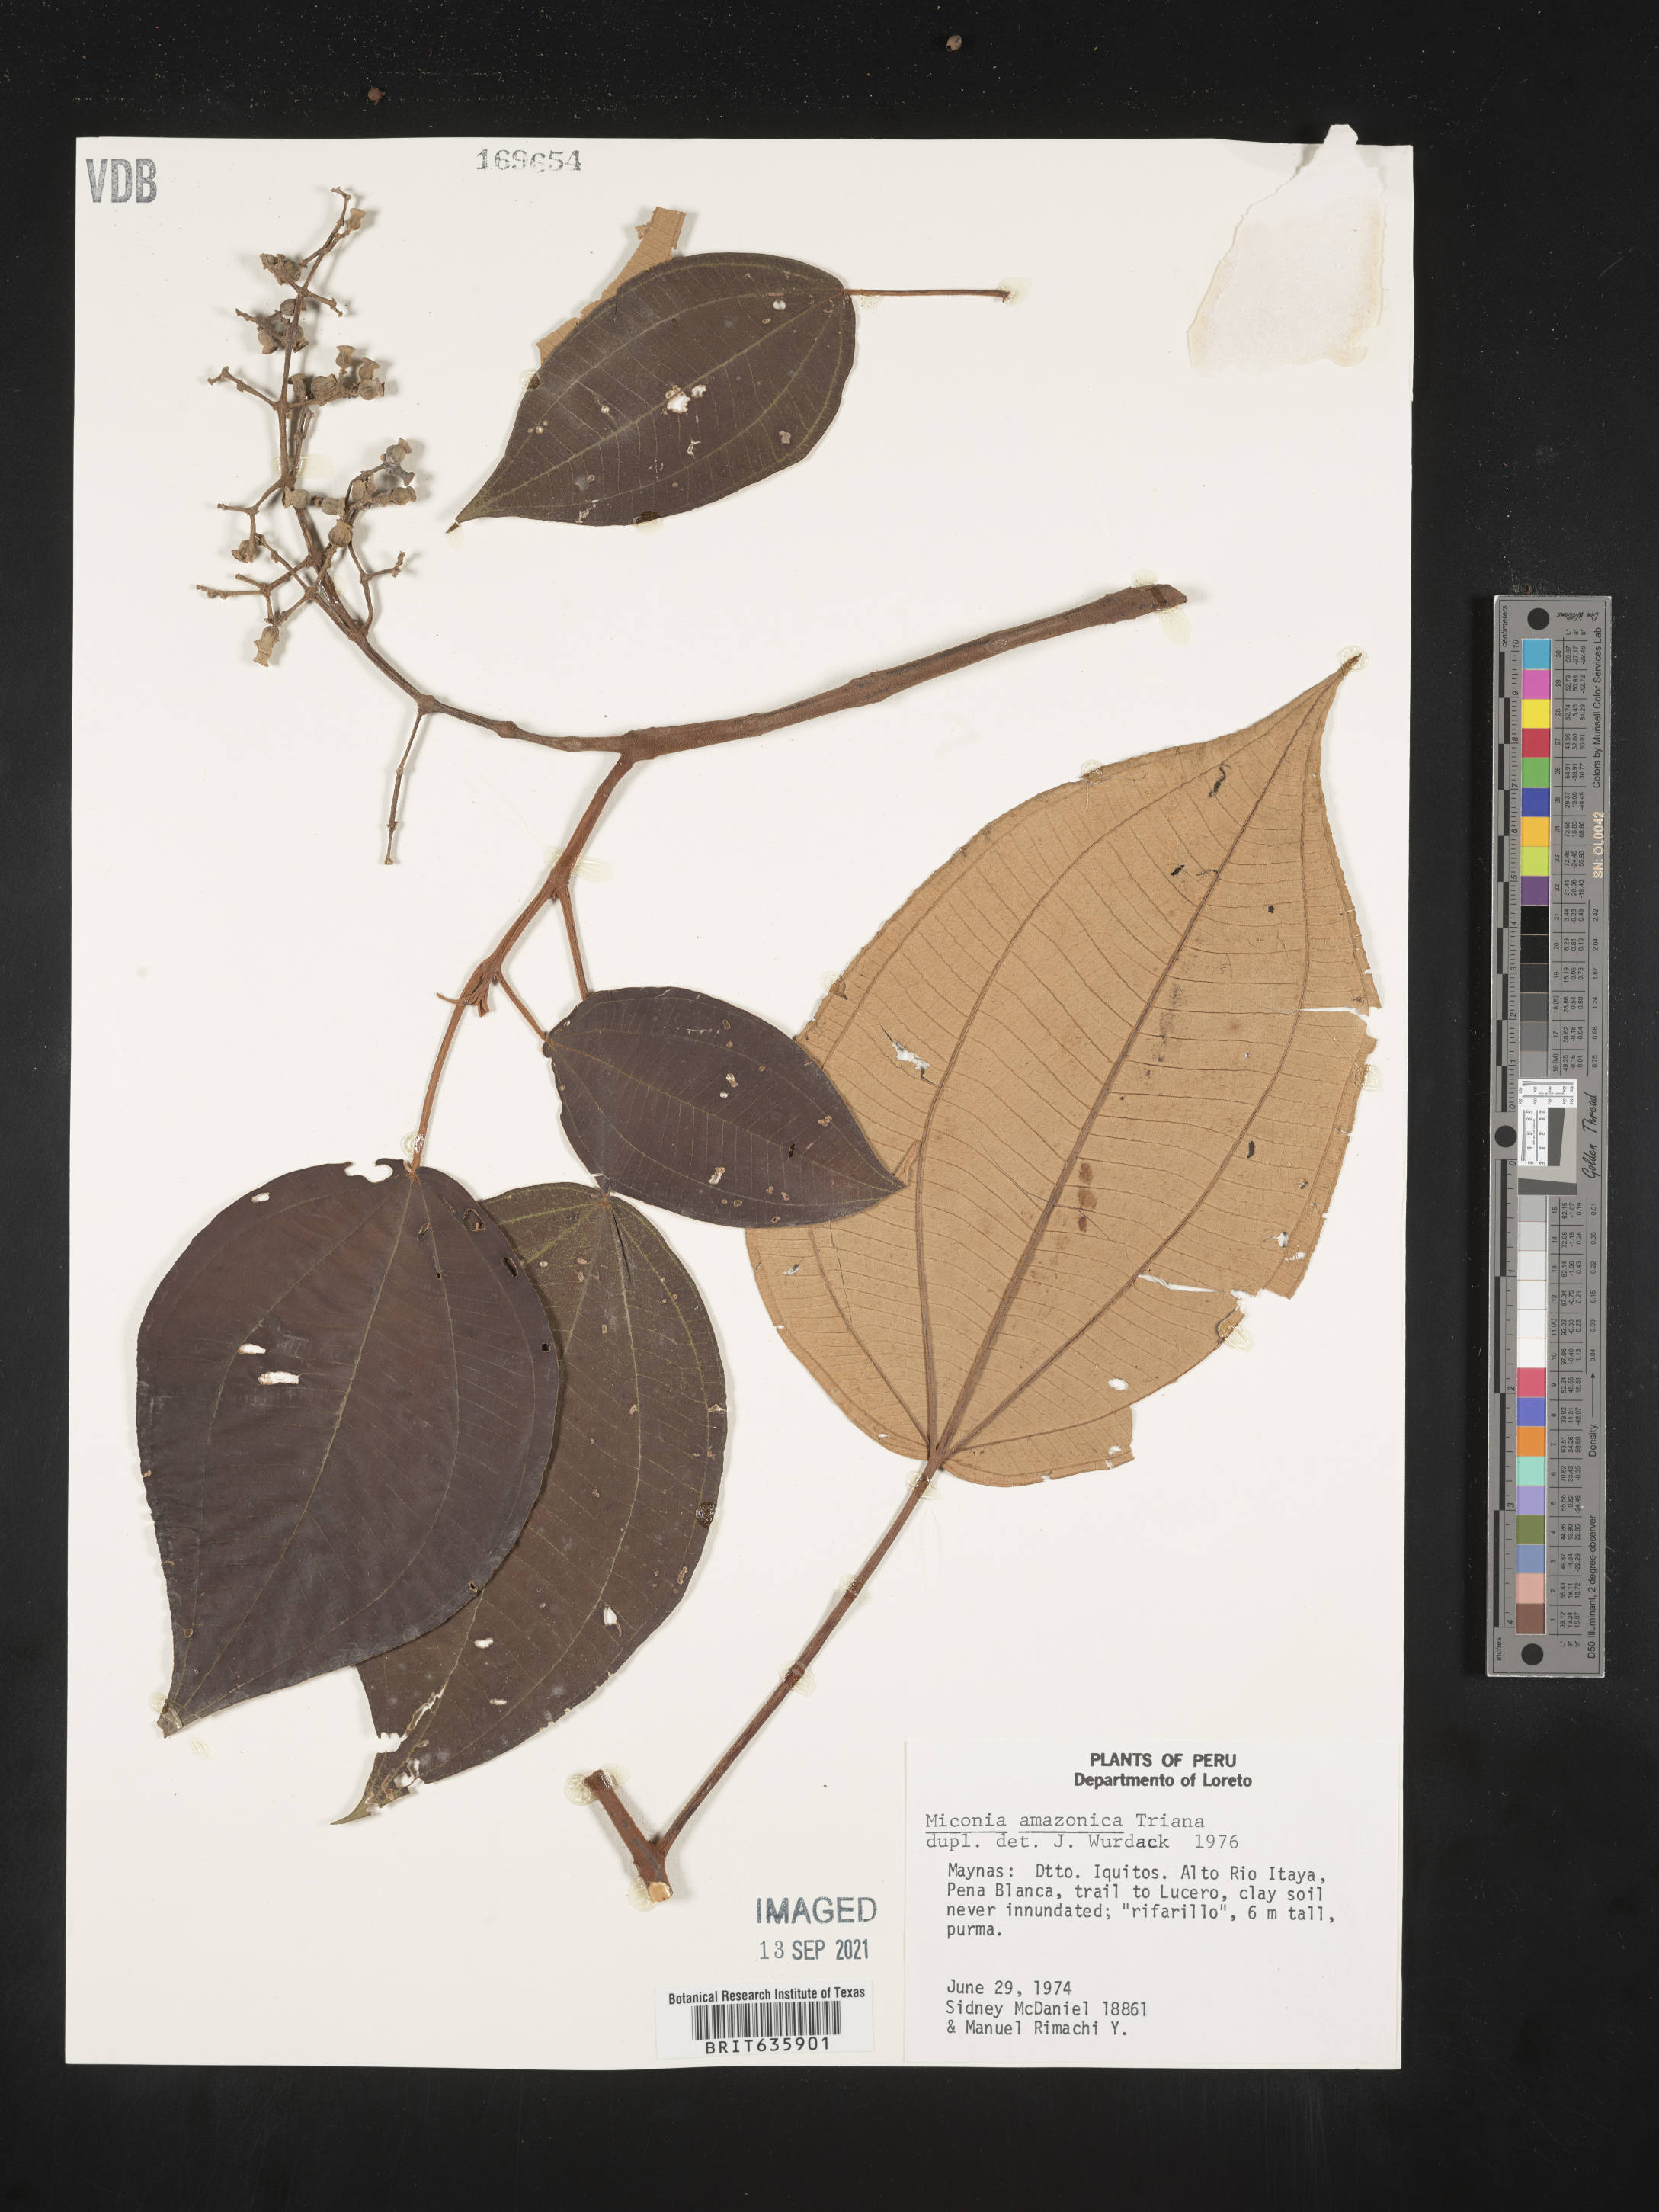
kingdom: Plantae
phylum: Tracheophyta
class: Magnoliopsida
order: Myrtales
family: Melastomataceae
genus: Miconia
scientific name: Miconia
